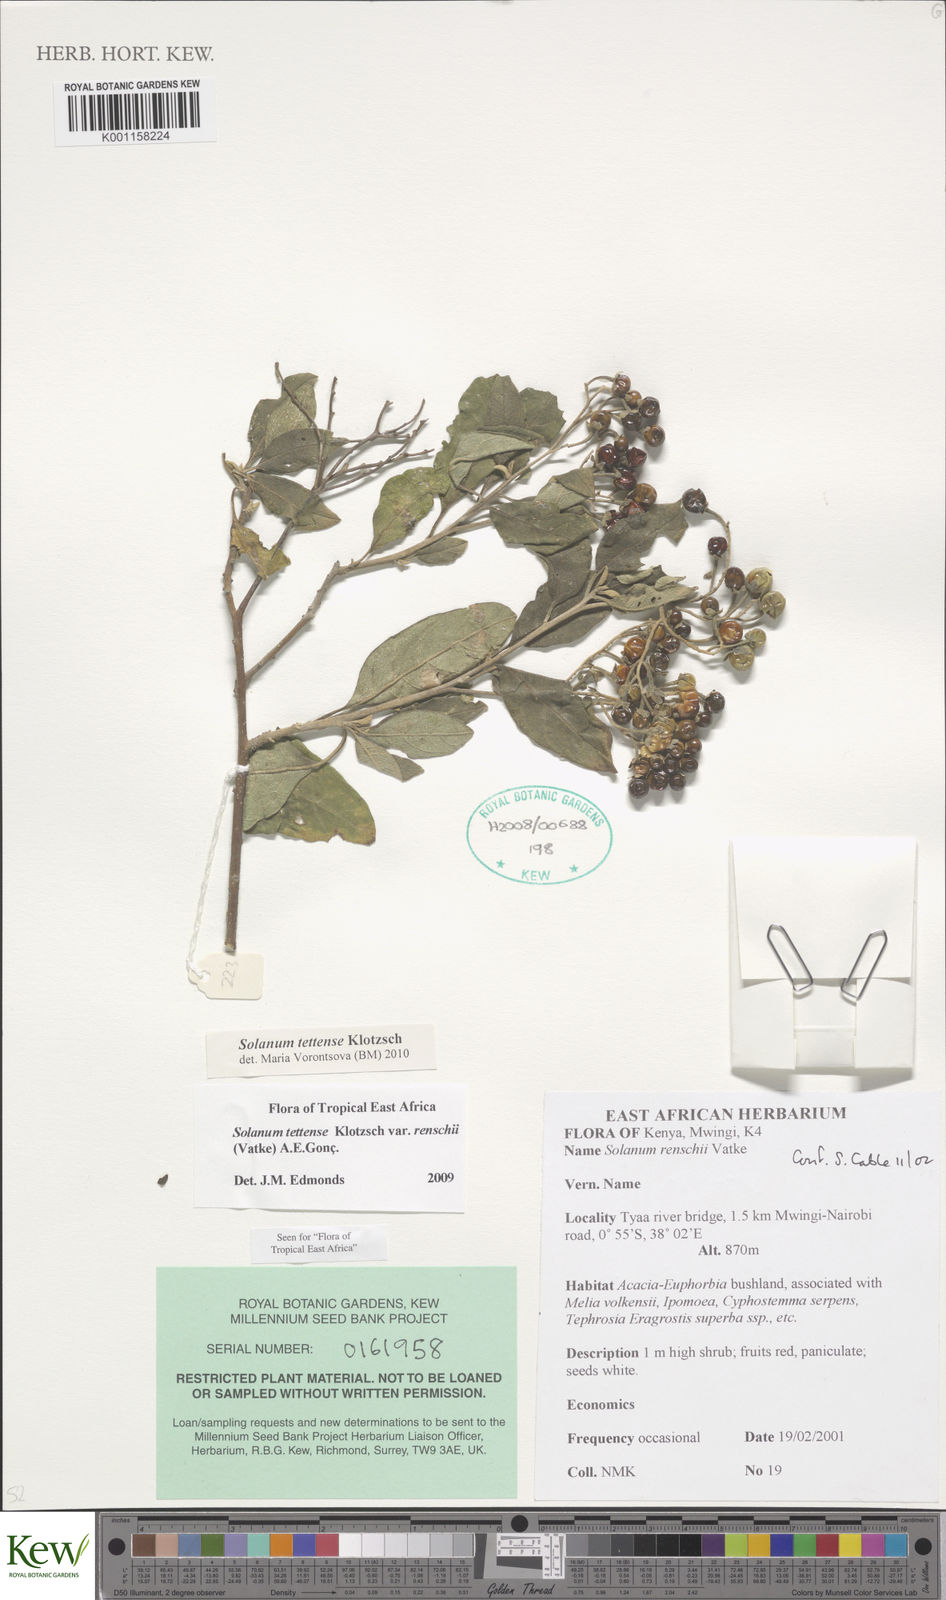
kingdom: Plantae
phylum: Tracheophyta
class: Magnoliopsida
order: Solanales
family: Solanaceae
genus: Solanum
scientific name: Solanum tettense
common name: Mozambique bitter apple
